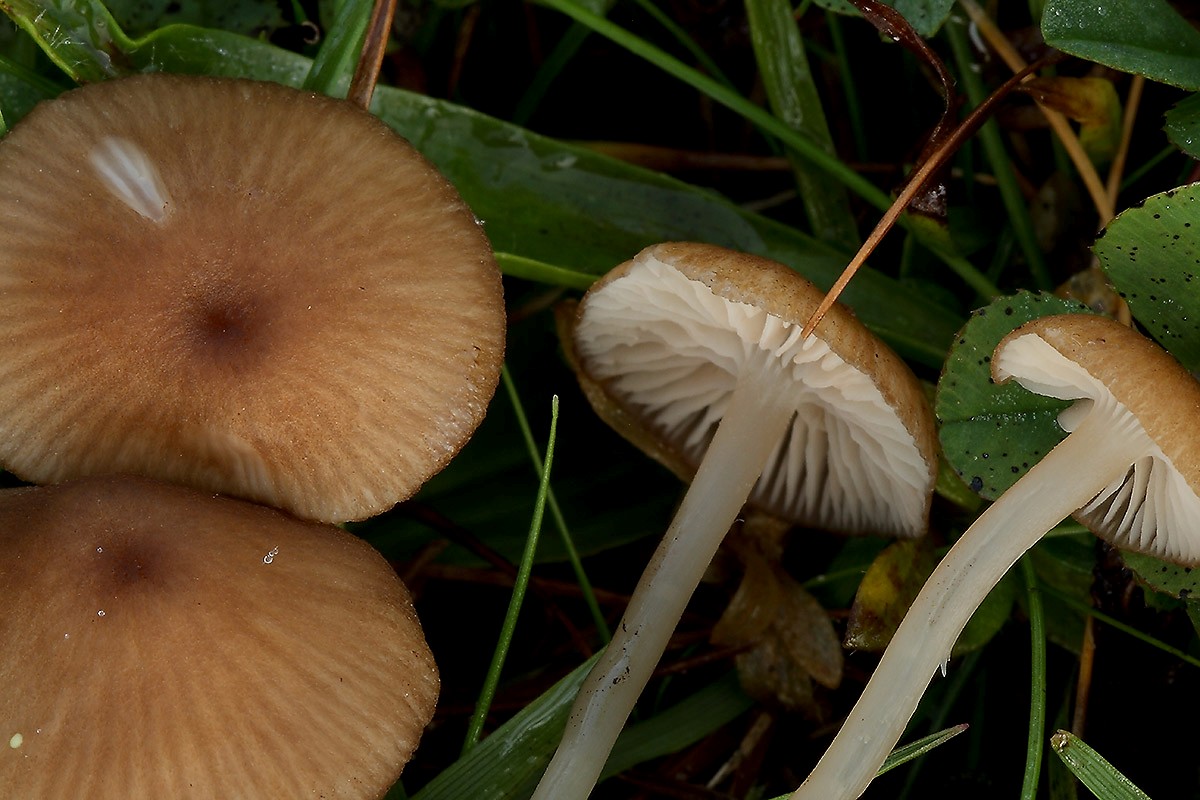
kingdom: Fungi
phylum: Basidiomycota
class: Agaricomycetes
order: Agaricales
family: Entolomataceae
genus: Entoloma
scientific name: Entoloma olivaceotinctum
